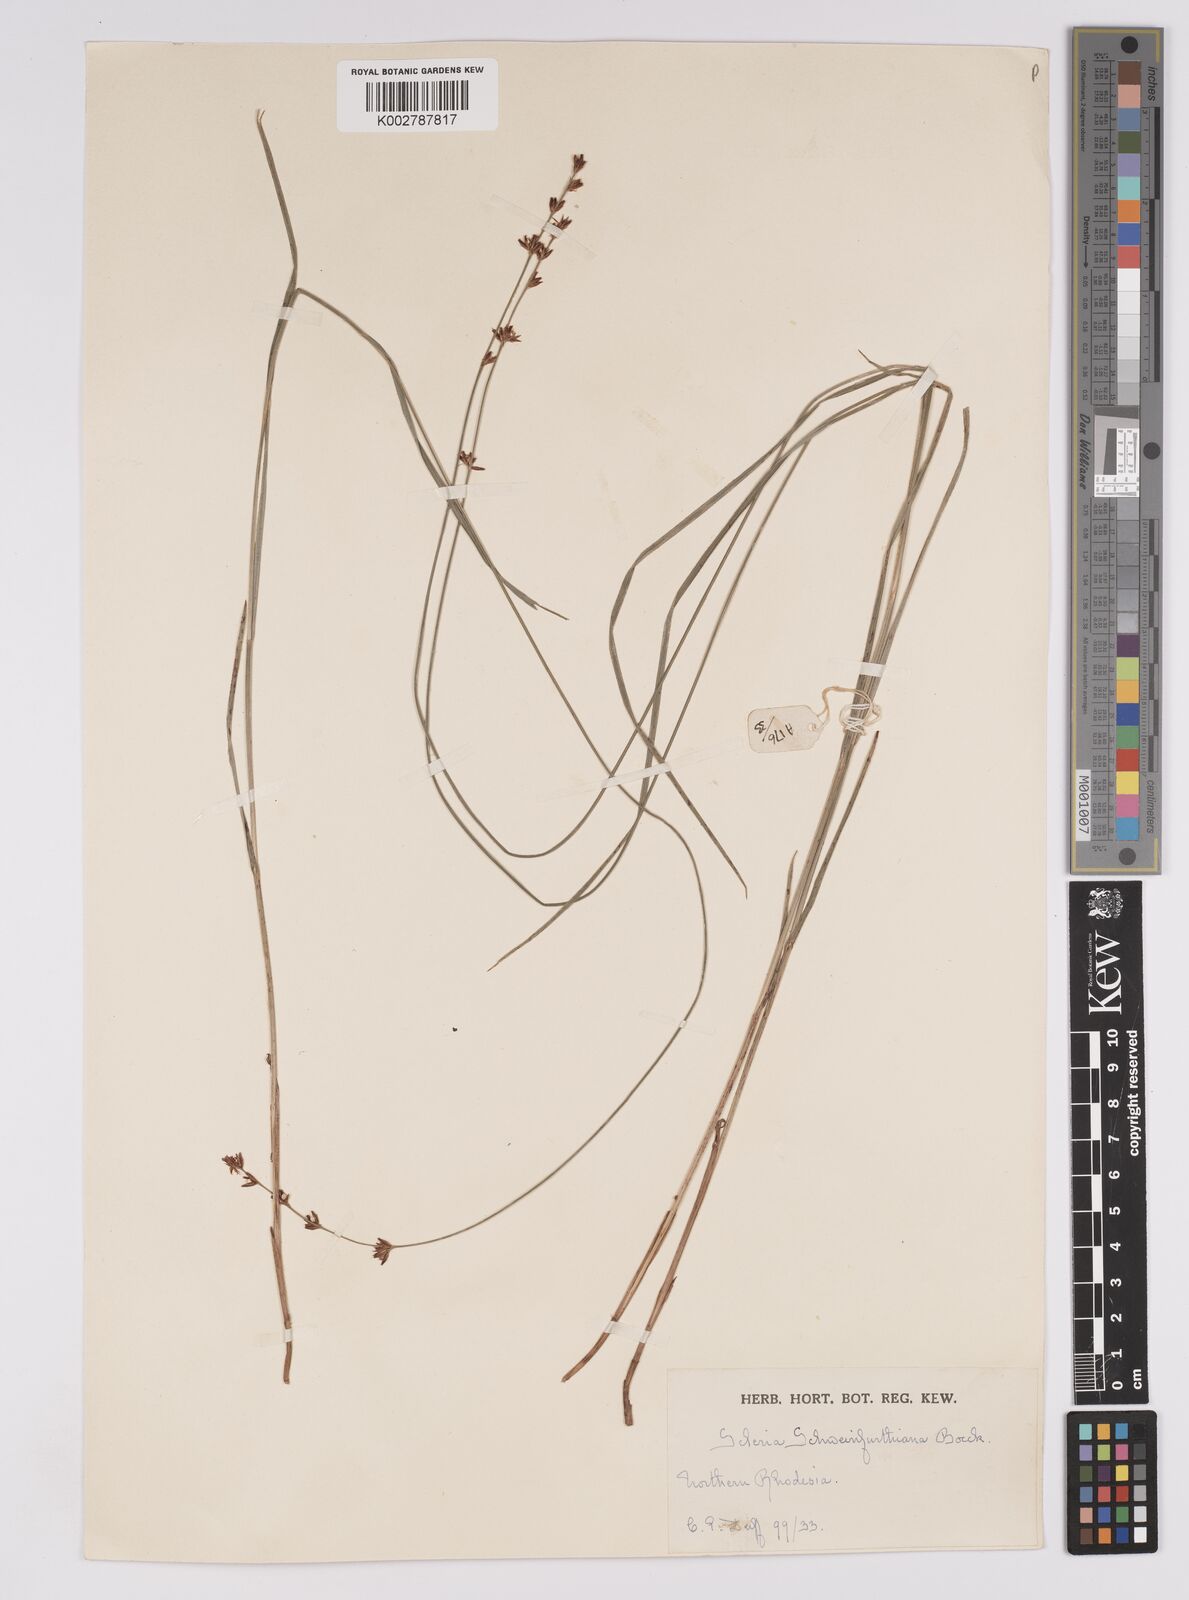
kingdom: Plantae
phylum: Tracheophyta
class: Liliopsida
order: Poales
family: Cyperaceae
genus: Scleria
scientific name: Scleria bulbifera
